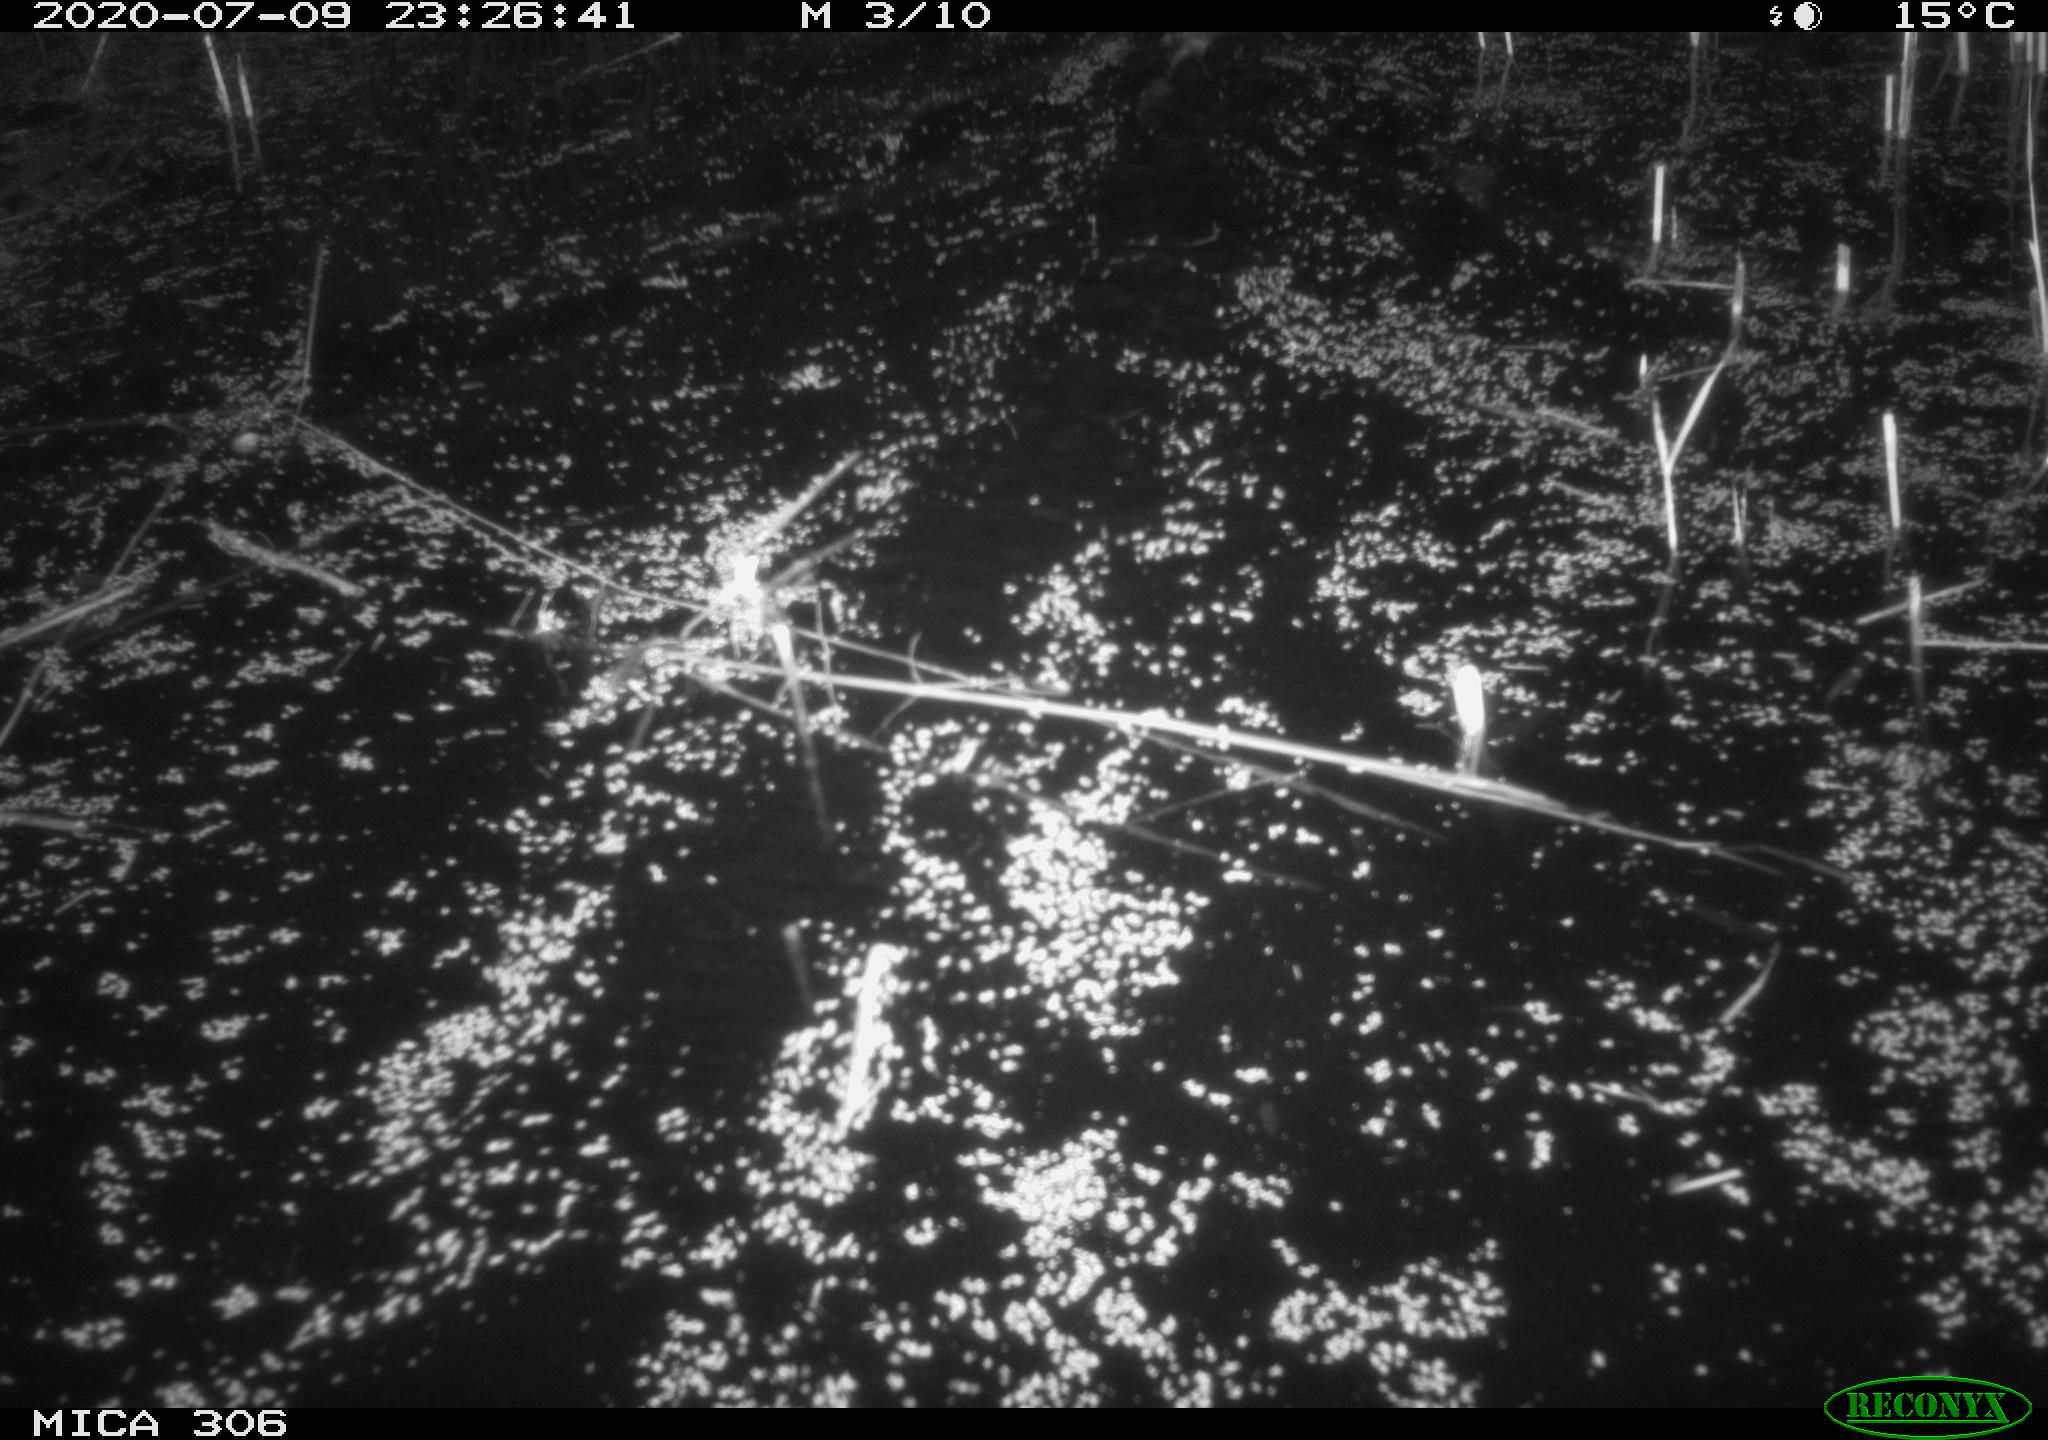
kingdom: Animalia
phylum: Chordata
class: Mammalia
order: Rodentia
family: Cricetidae
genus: Ondatra
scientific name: Ondatra zibethicus
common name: Muskrat
